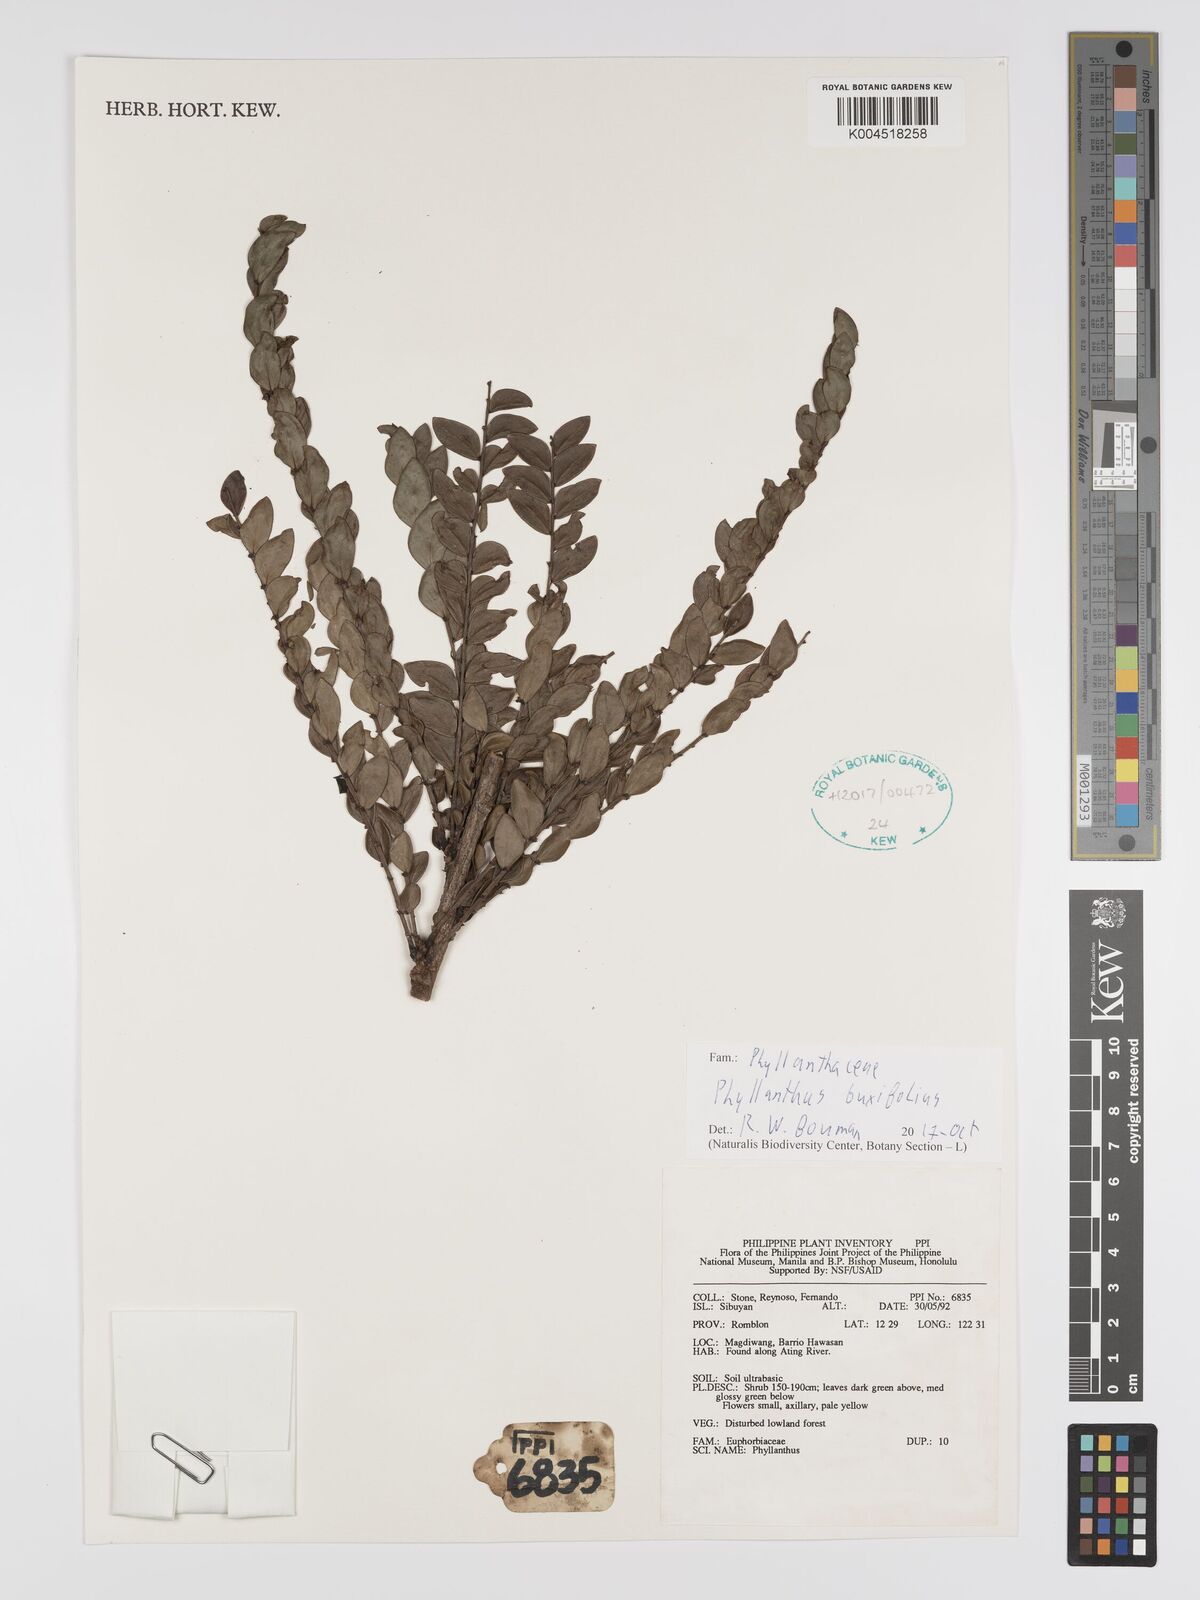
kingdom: Plantae
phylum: Tracheophyta
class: Magnoliopsida
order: Malpighiales
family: Phyllanthaceae
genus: Phyllanthus
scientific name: Phyllanthus buxifolius
